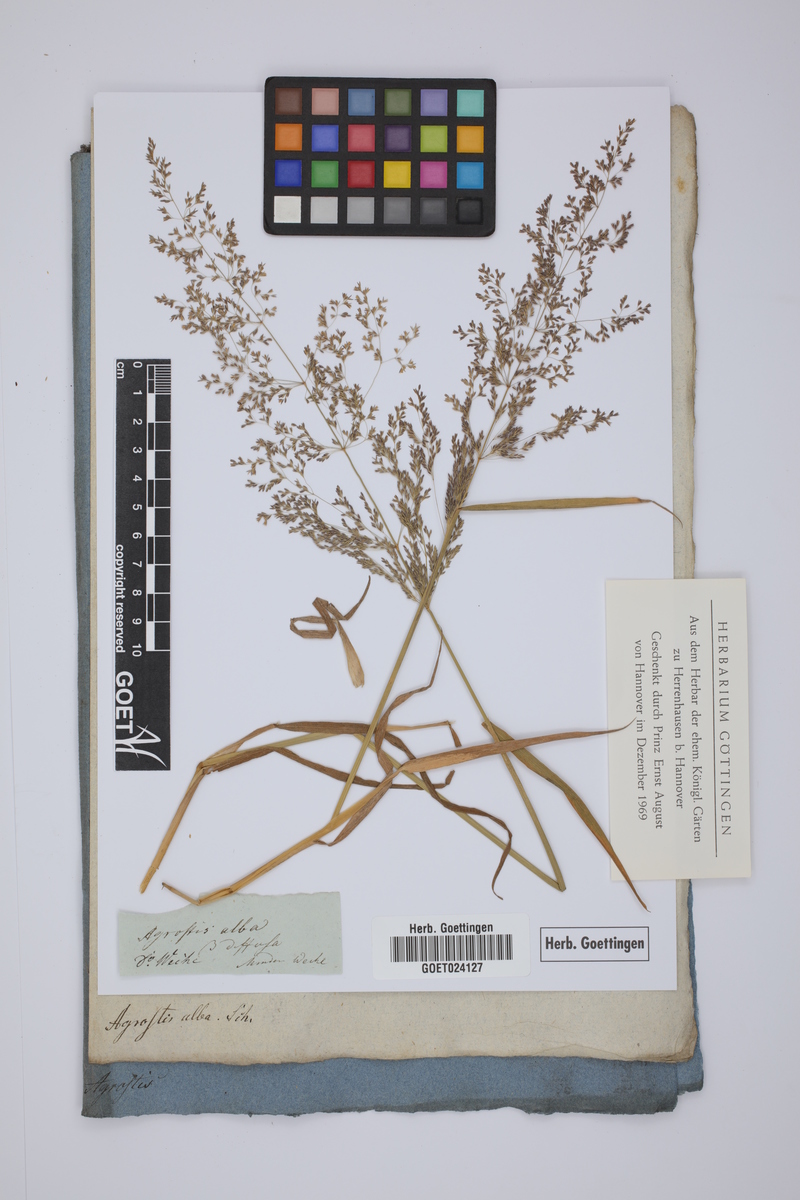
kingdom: Plantae
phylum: Tracheophyta
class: Liliopsida
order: Poales
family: Poaceae
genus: Agrostis
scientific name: Agrostis gigantea
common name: Black bent
